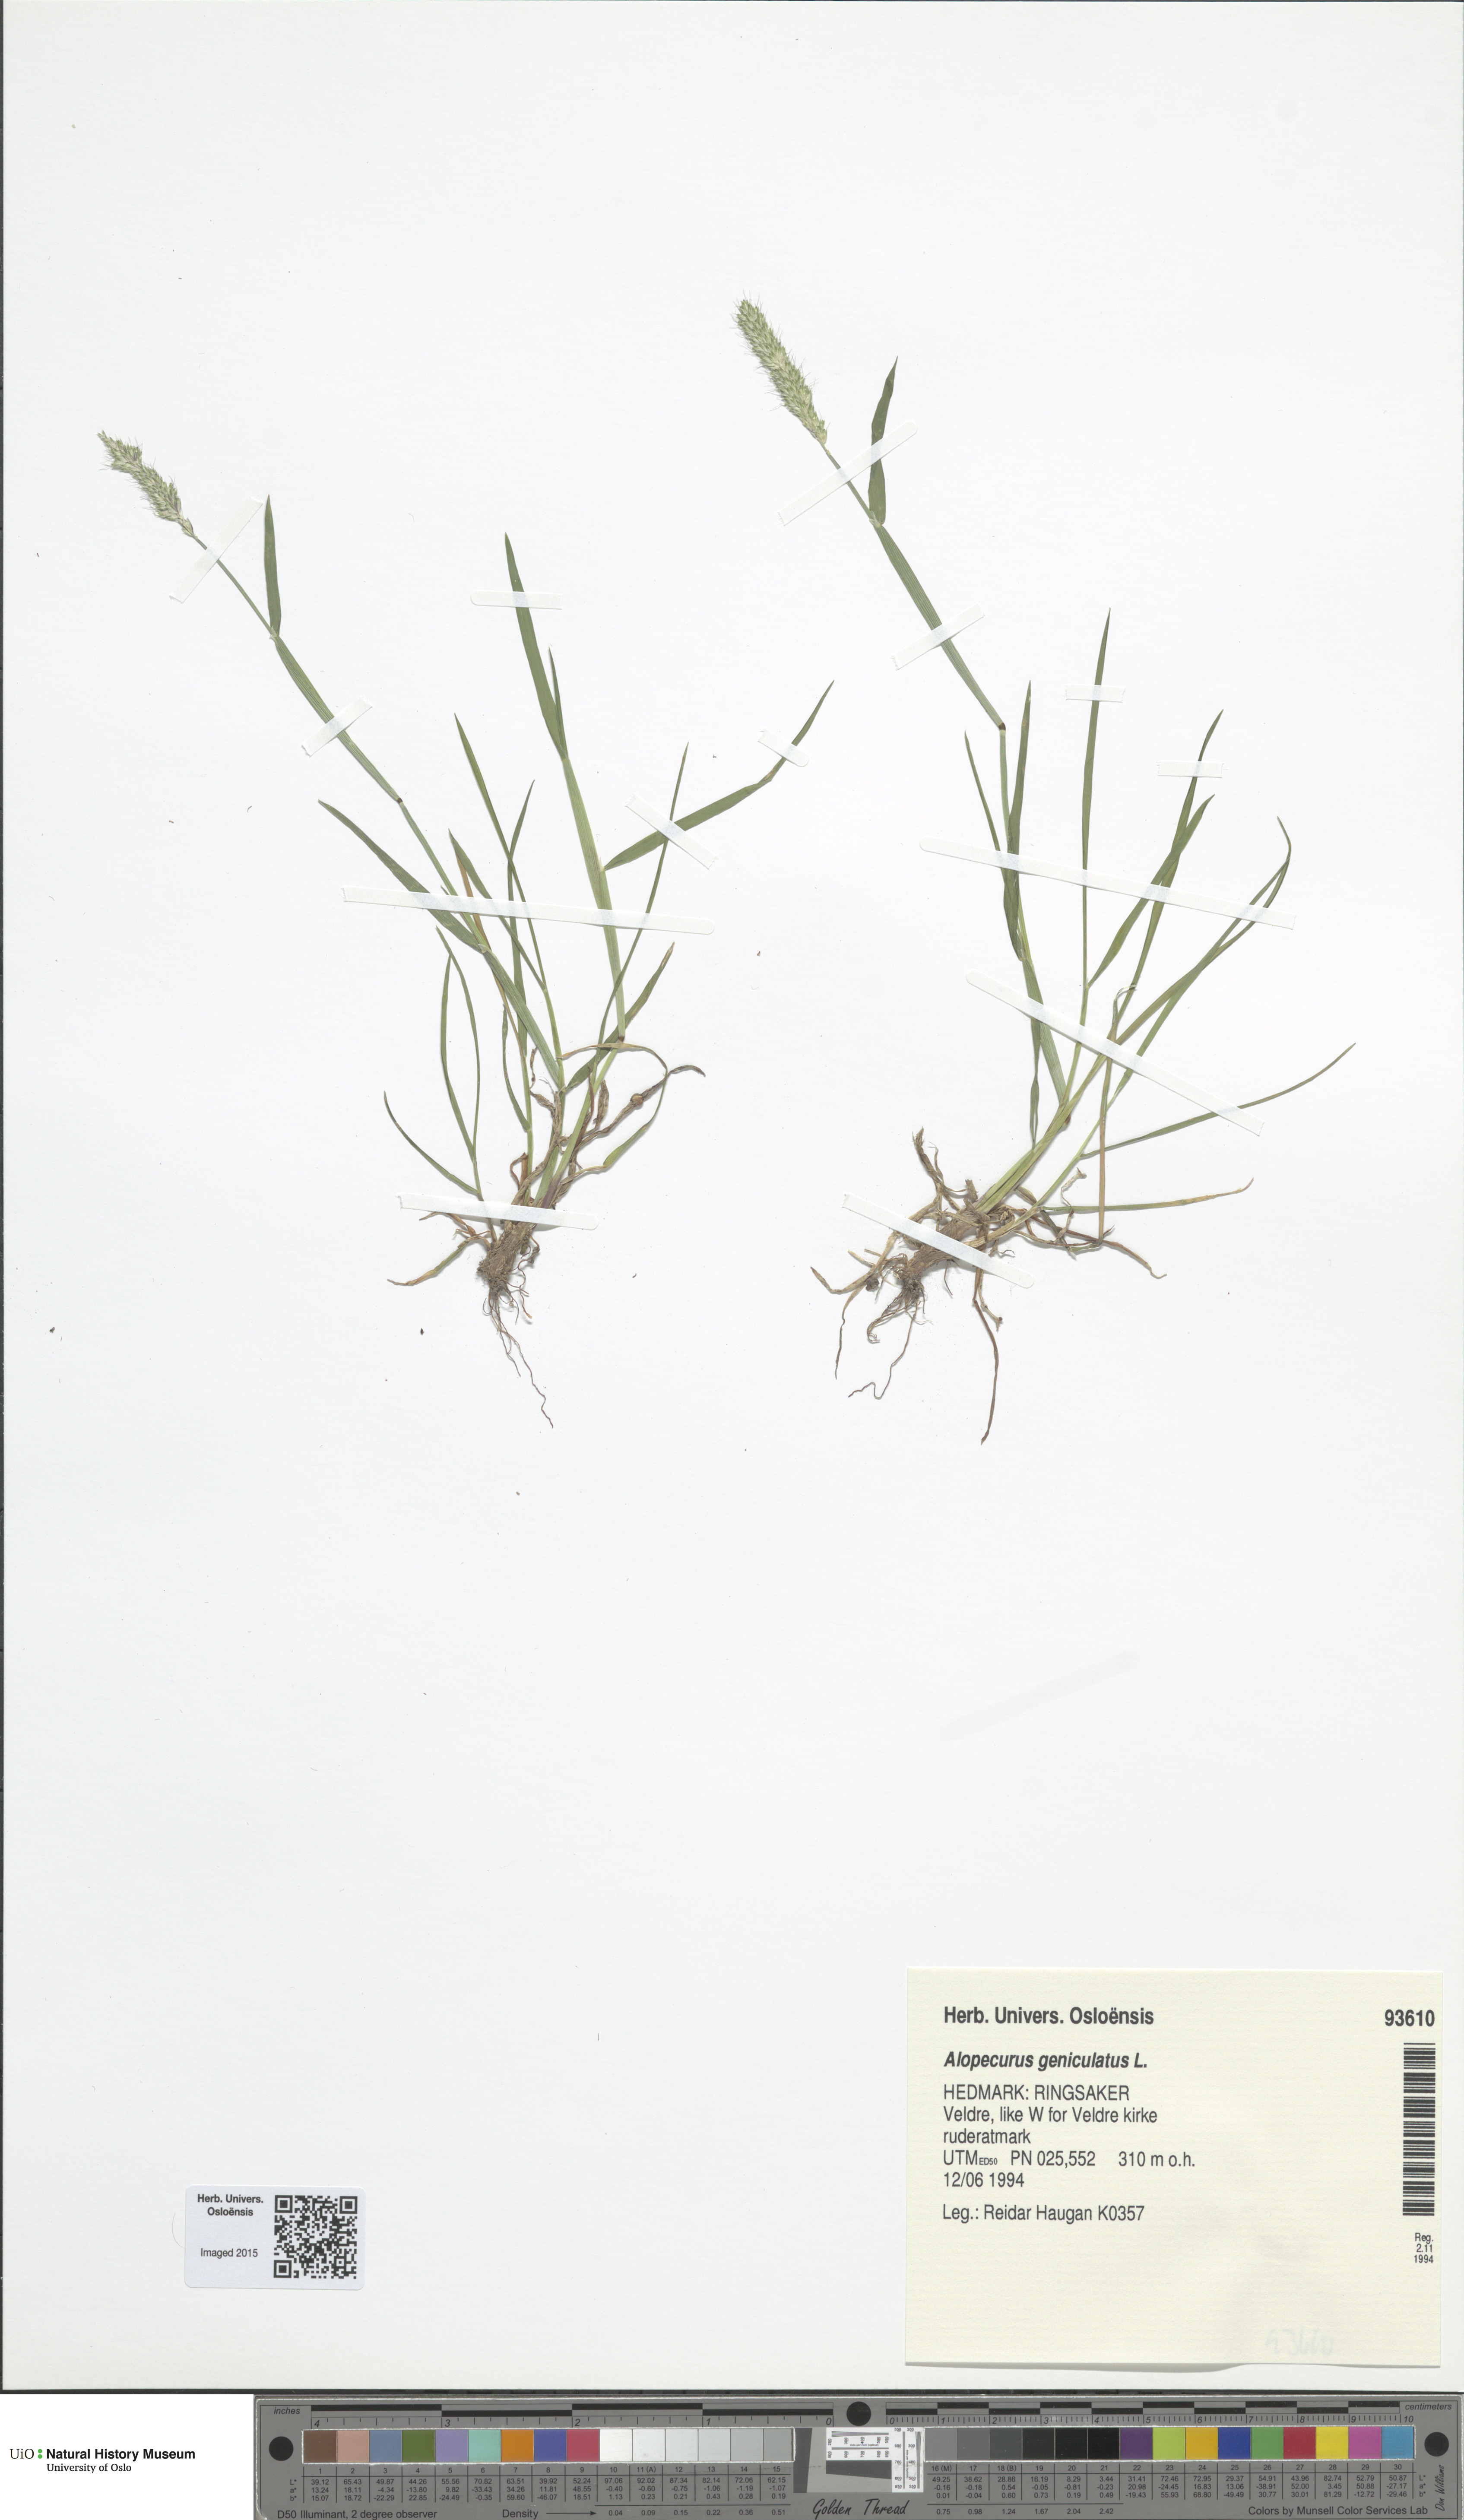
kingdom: Plantae
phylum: Tracheophyta
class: Liliopsida
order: Poales
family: Poaceae
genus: Alopecurus
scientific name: Alopecurus geniculatus
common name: Water foxtail
